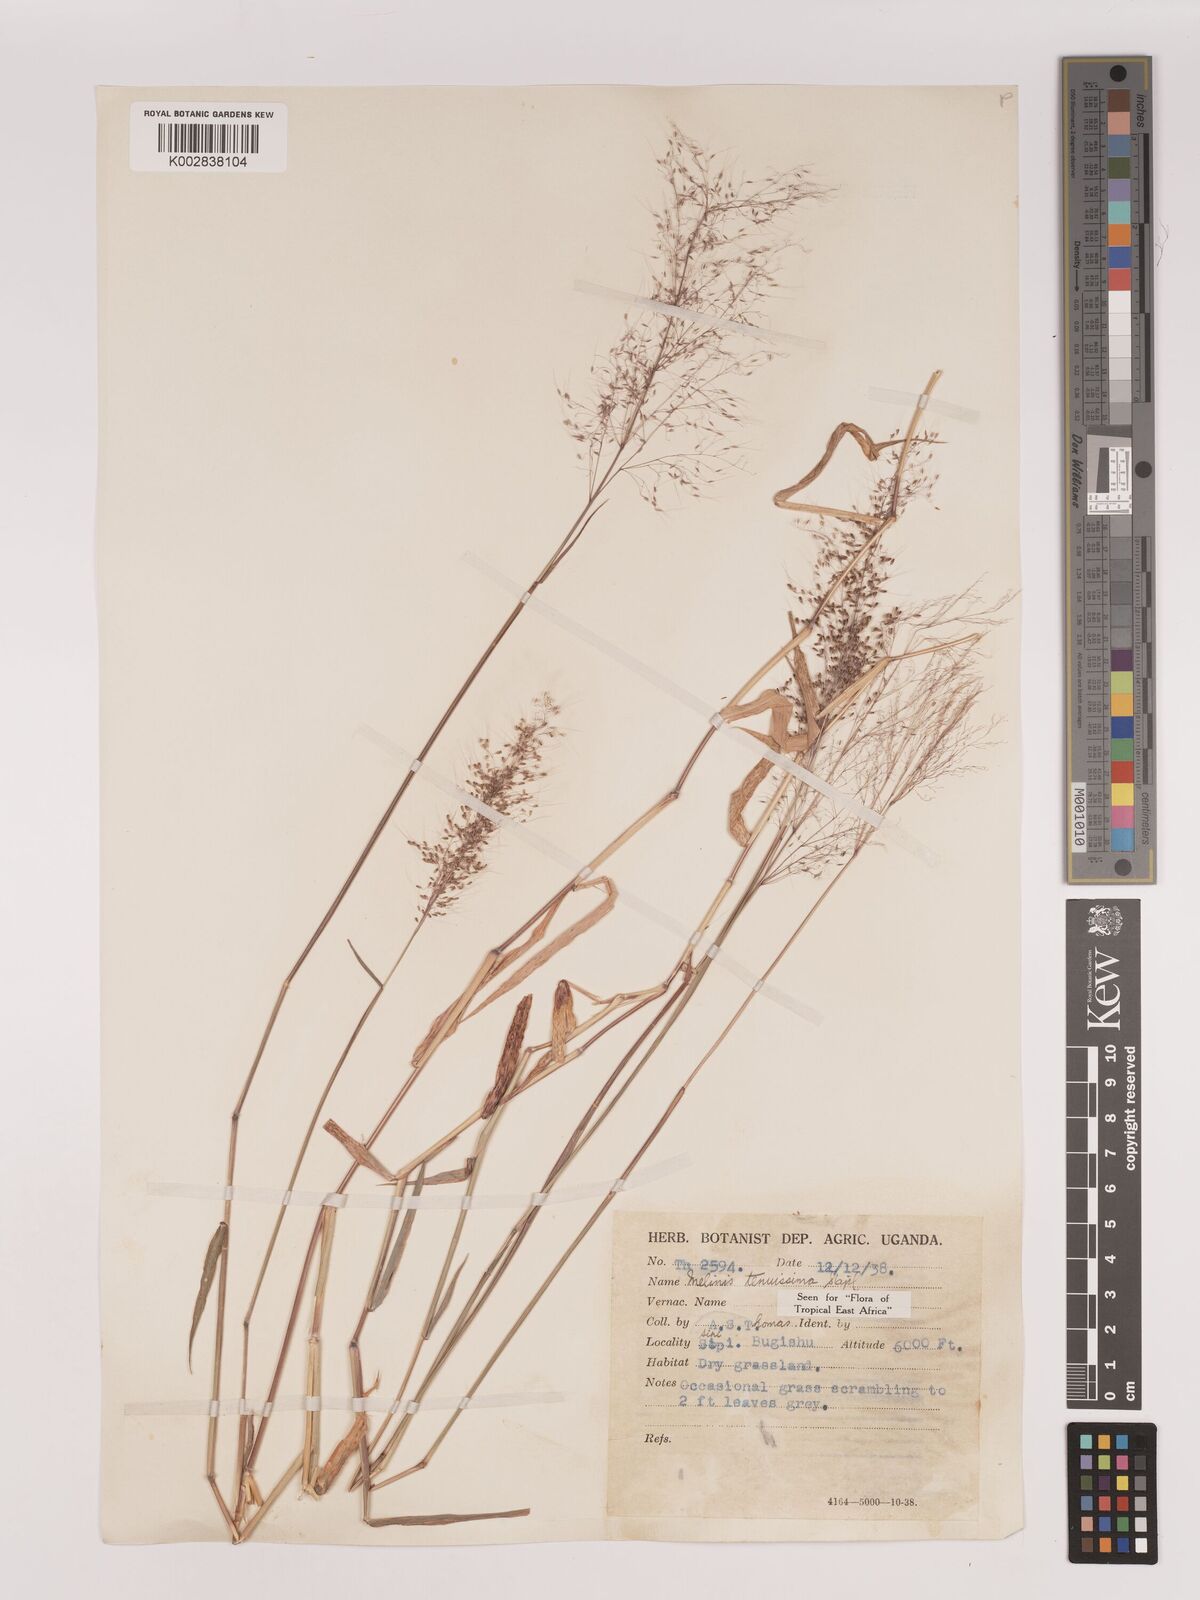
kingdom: Plantae
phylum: Tracheophyta
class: Liliopsida
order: Poales
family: Poaceae
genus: Melinis
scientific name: Melinis tenuissima
